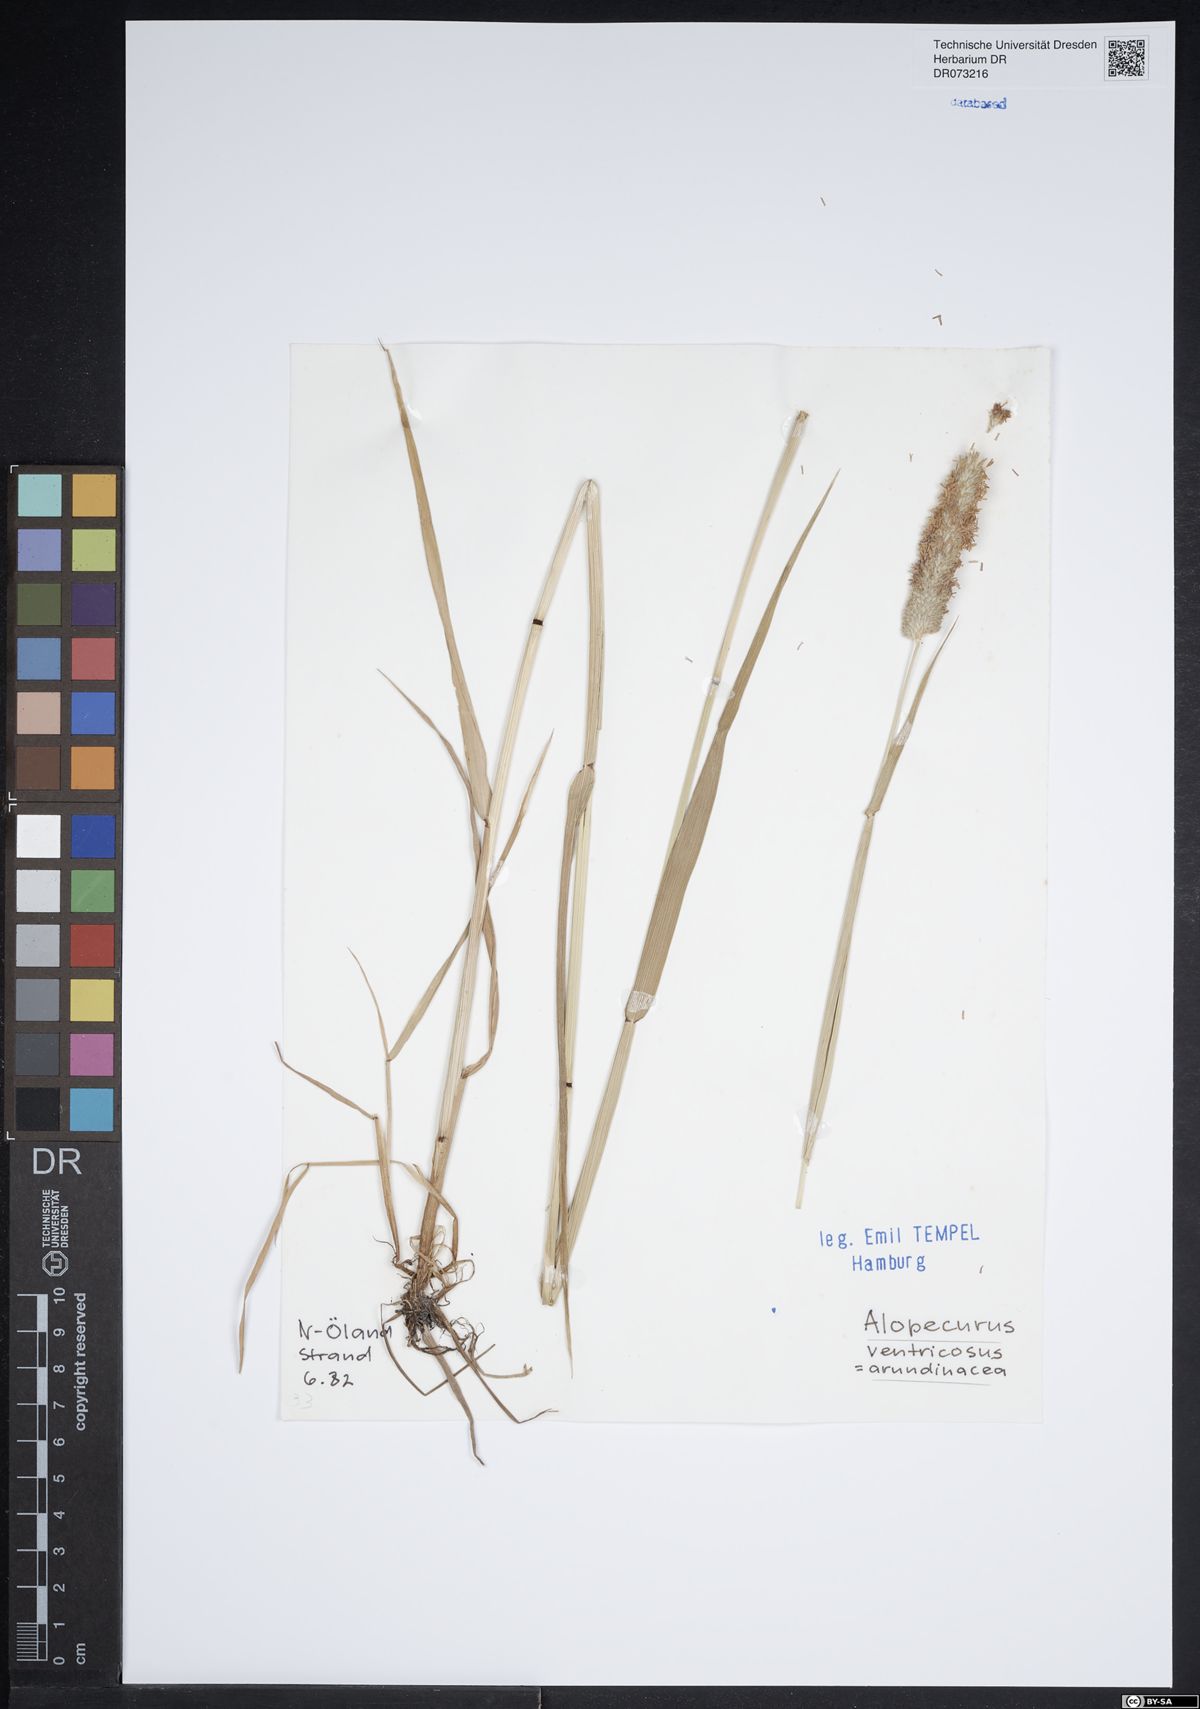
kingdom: Plantae
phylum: Tracheophyta
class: Liliopsida
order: Poales
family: Poaceae
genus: Alopecurus
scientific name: Alopecurus arundinaceus
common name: Creeping meadow foxtail
